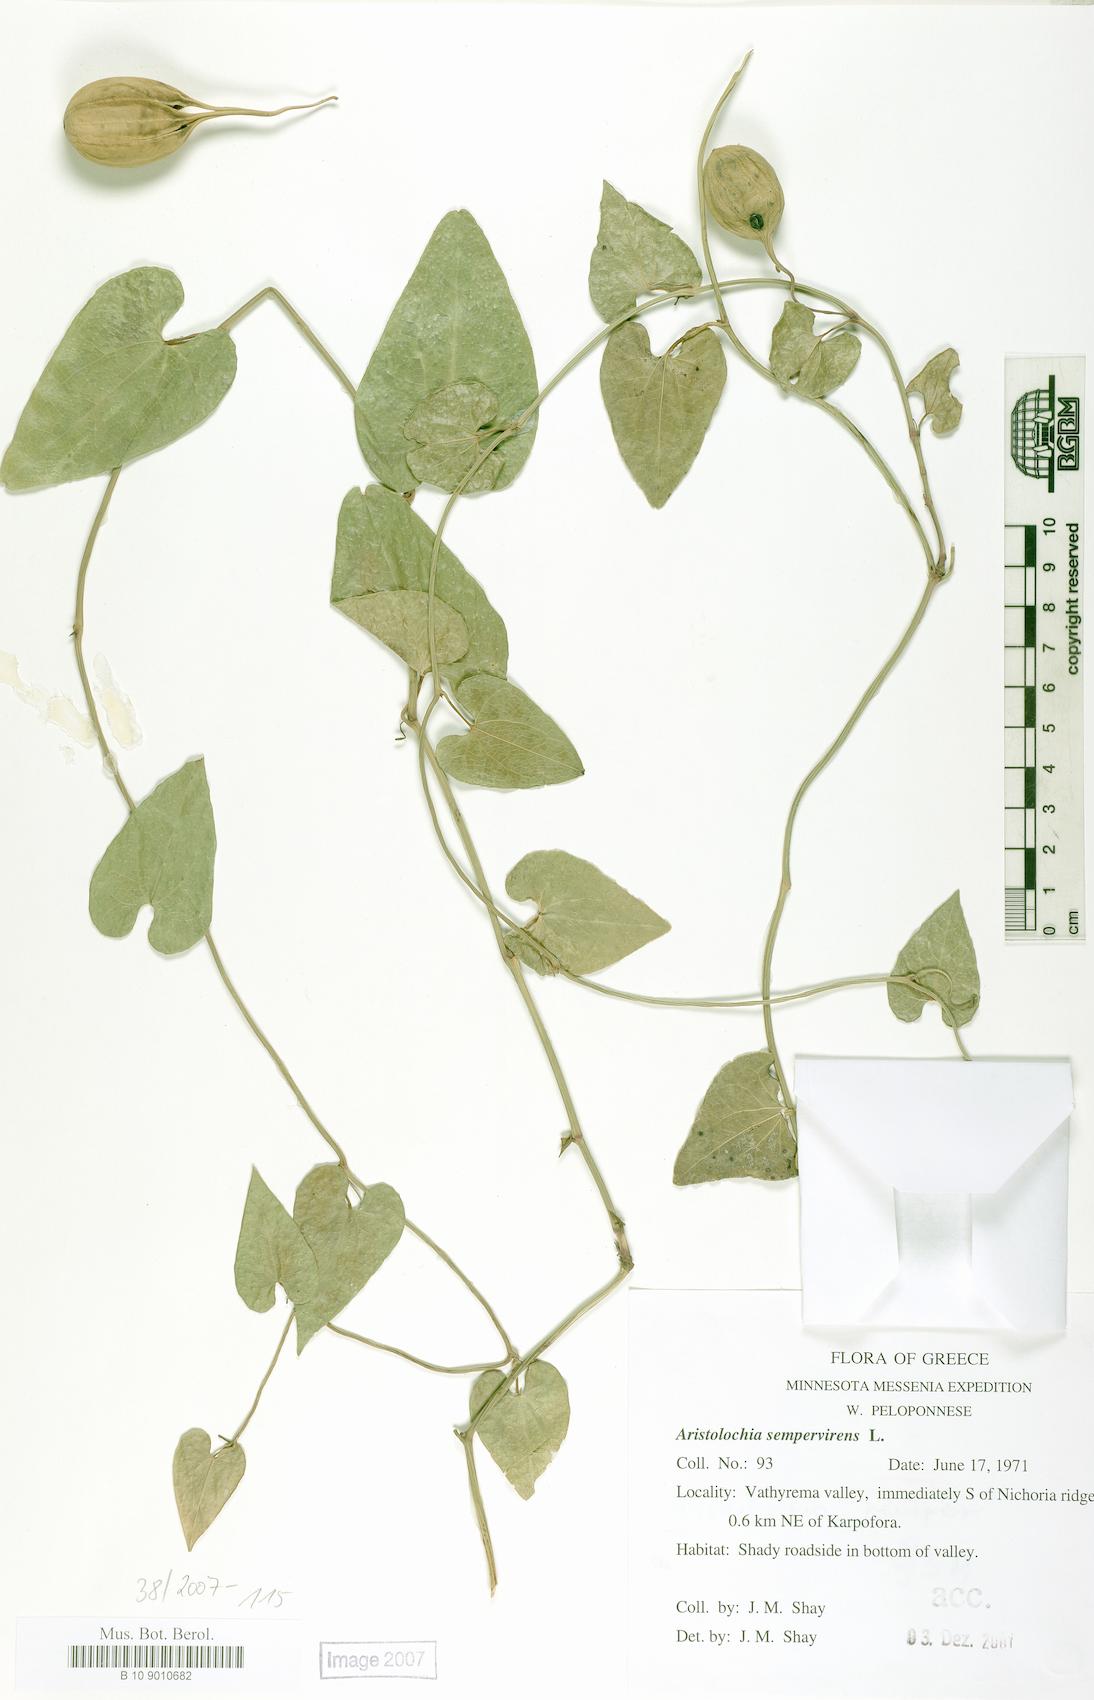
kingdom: Plantae
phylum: Tracheophyta
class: Magnoliopsida
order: Piperales
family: Aristolochiaceae
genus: Aristolochia
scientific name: Aristolochia sempervirens
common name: Long birthwort
